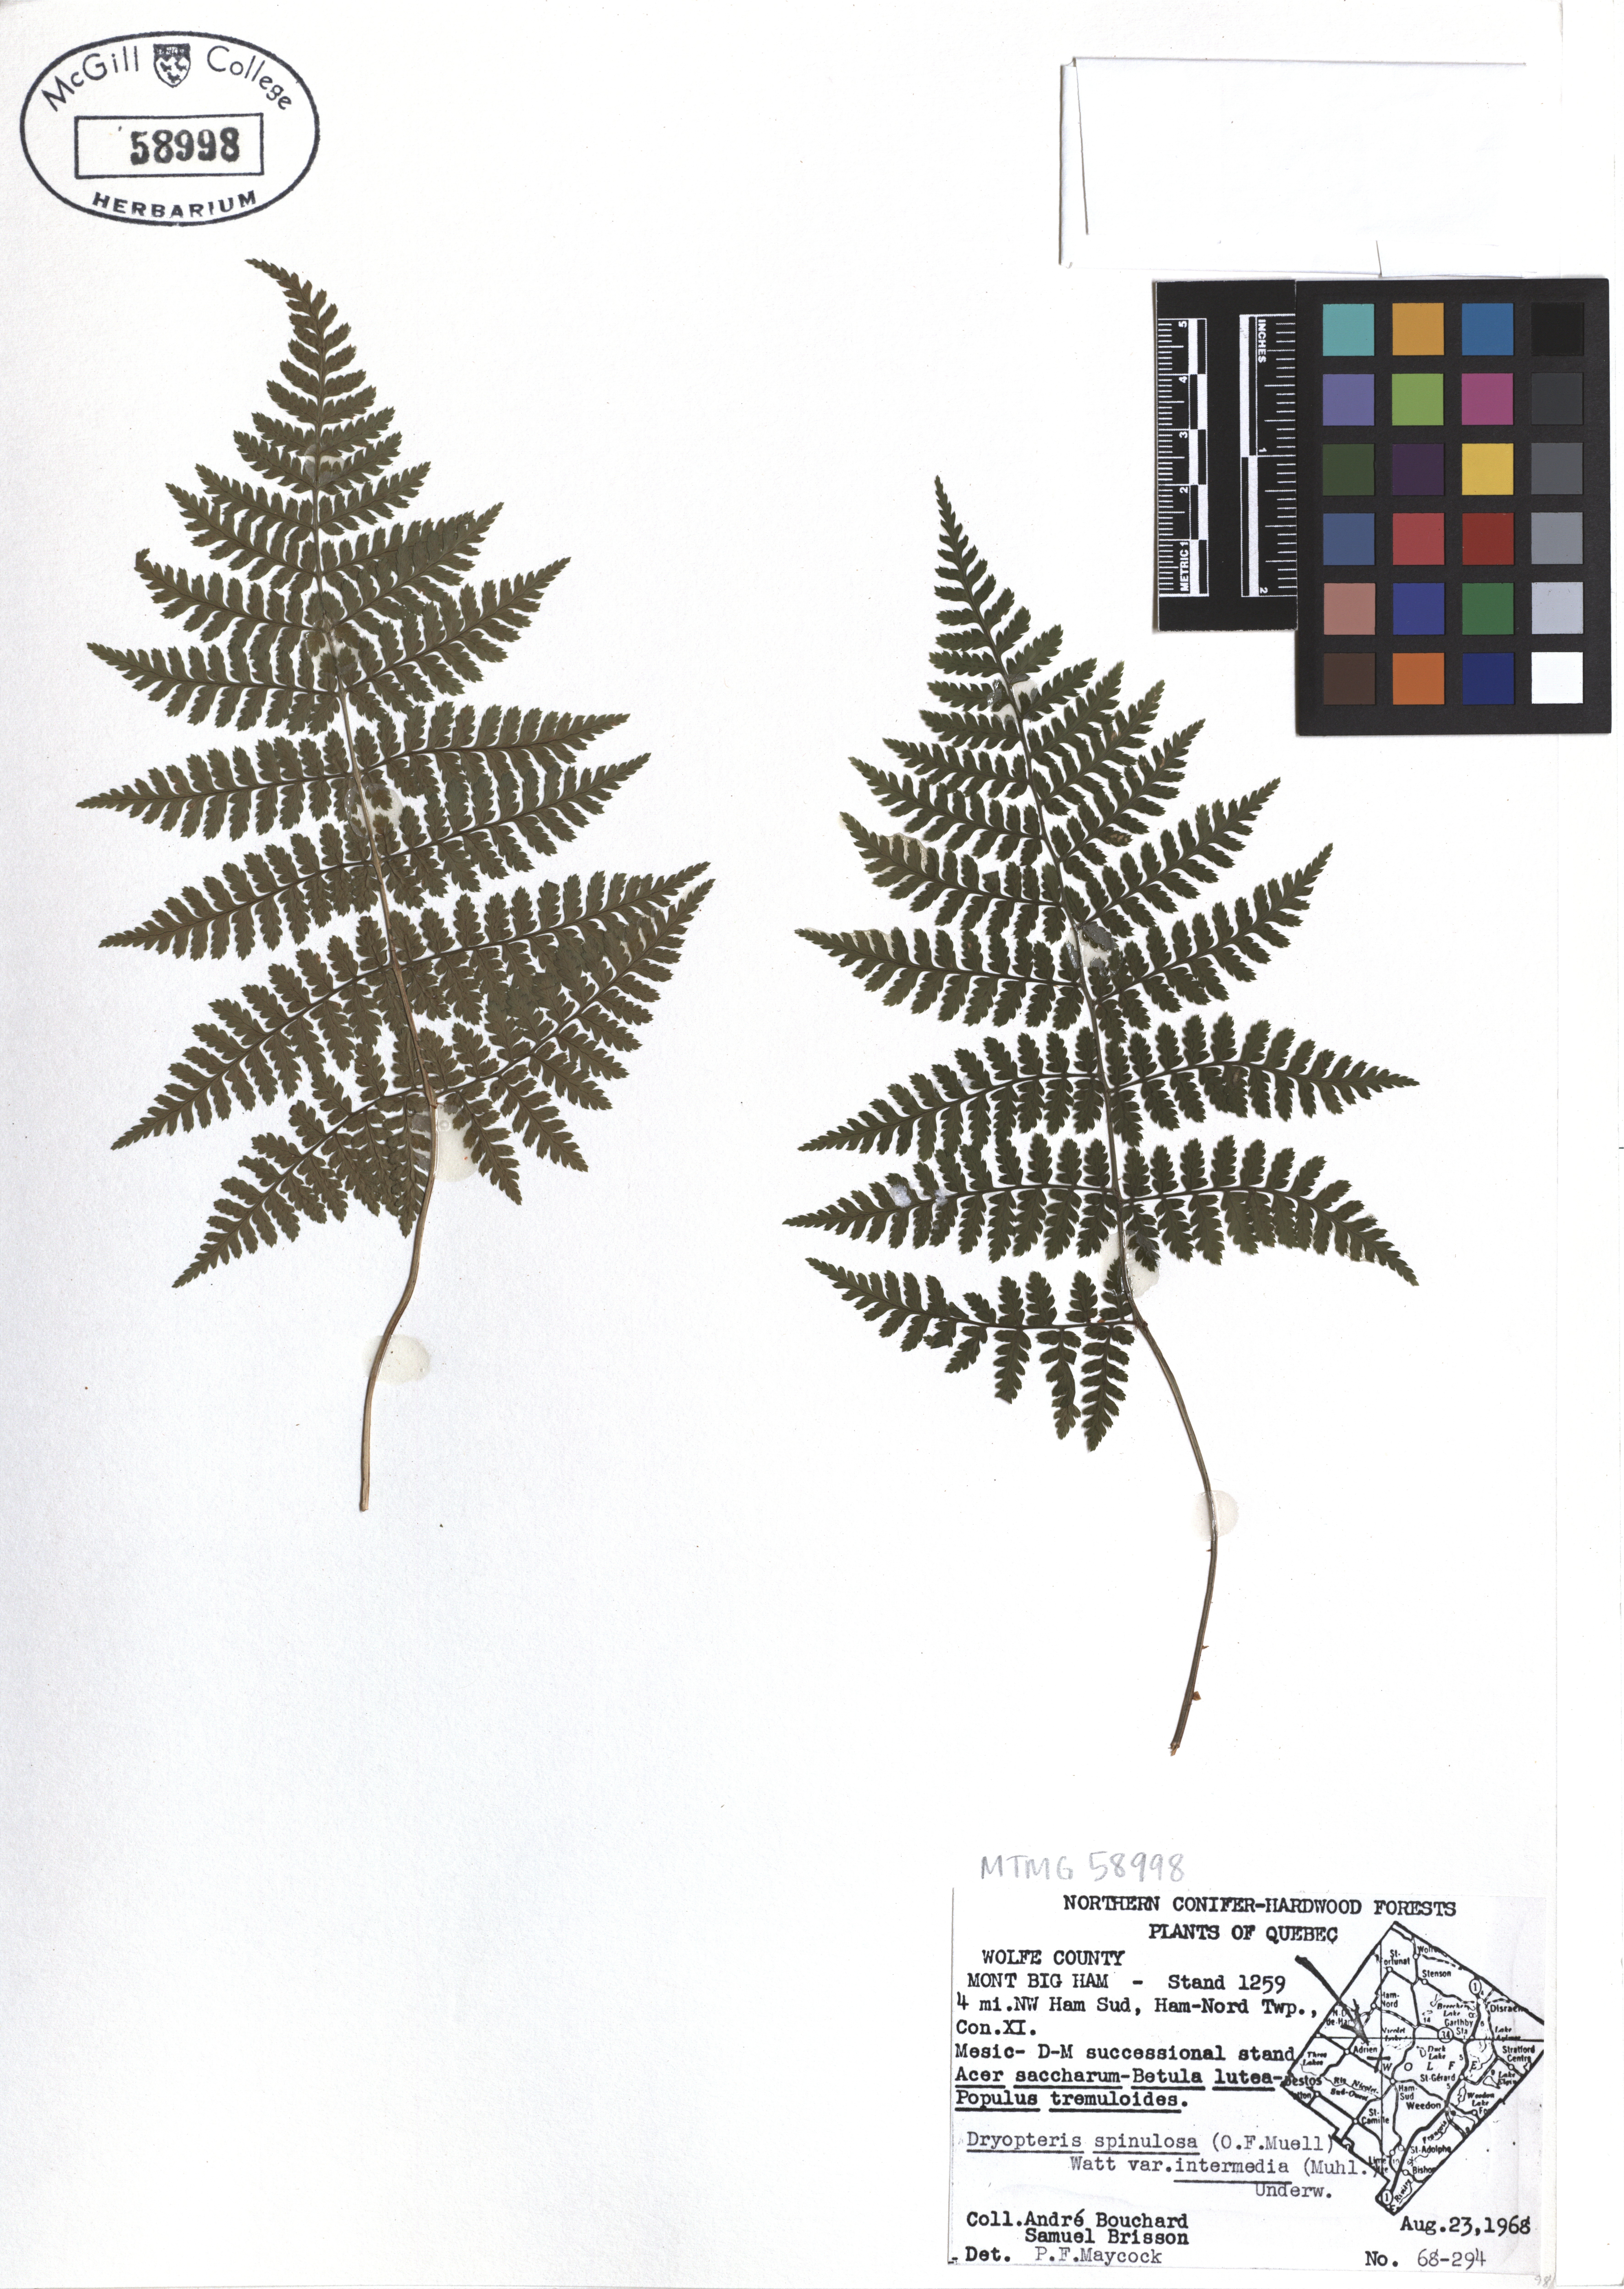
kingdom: Plantae
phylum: Tracheophyta
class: Polypodiopsida
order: Polypodiales
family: Dryopteridaceae
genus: Dryopteris
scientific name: Dryopteris intermedia
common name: Evergreen wood fern
